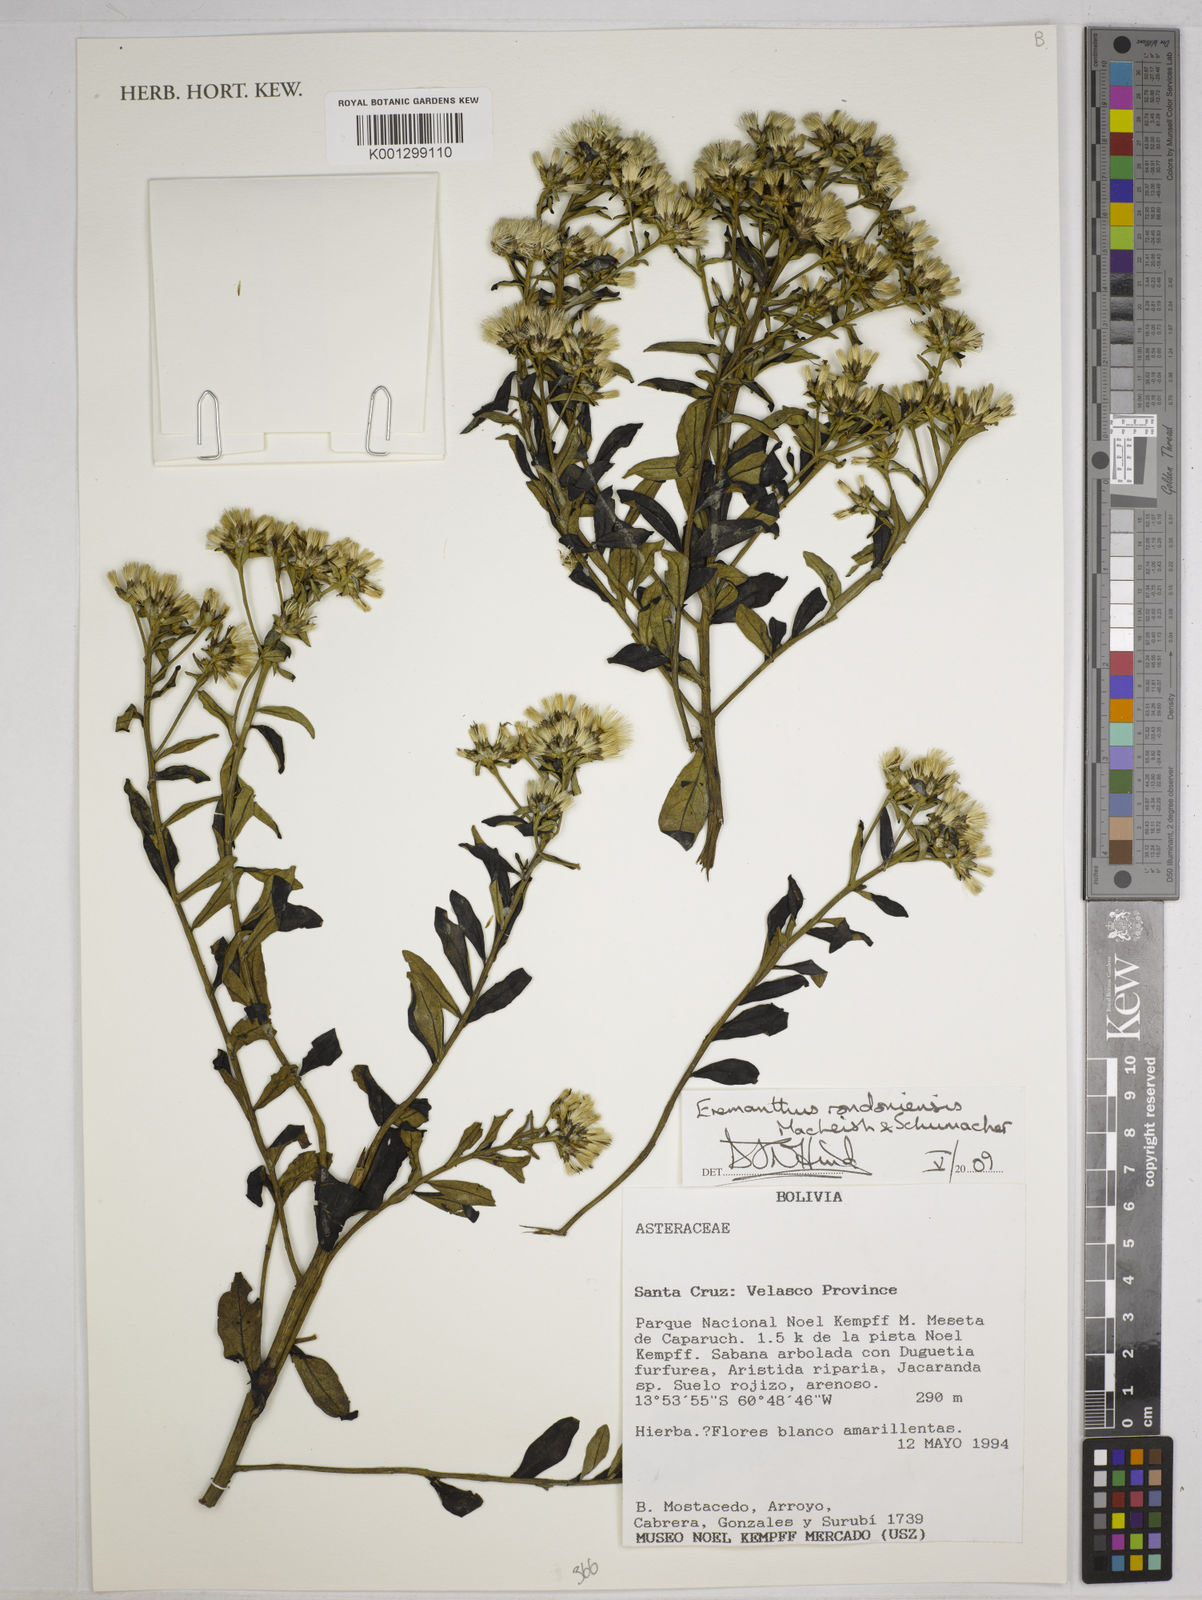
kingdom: Plantae
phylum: Tracheophyta
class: Magnoliopsida
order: Asterales
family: Asteraceae
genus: Eremanthus
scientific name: Eremanthus rondoniensis
